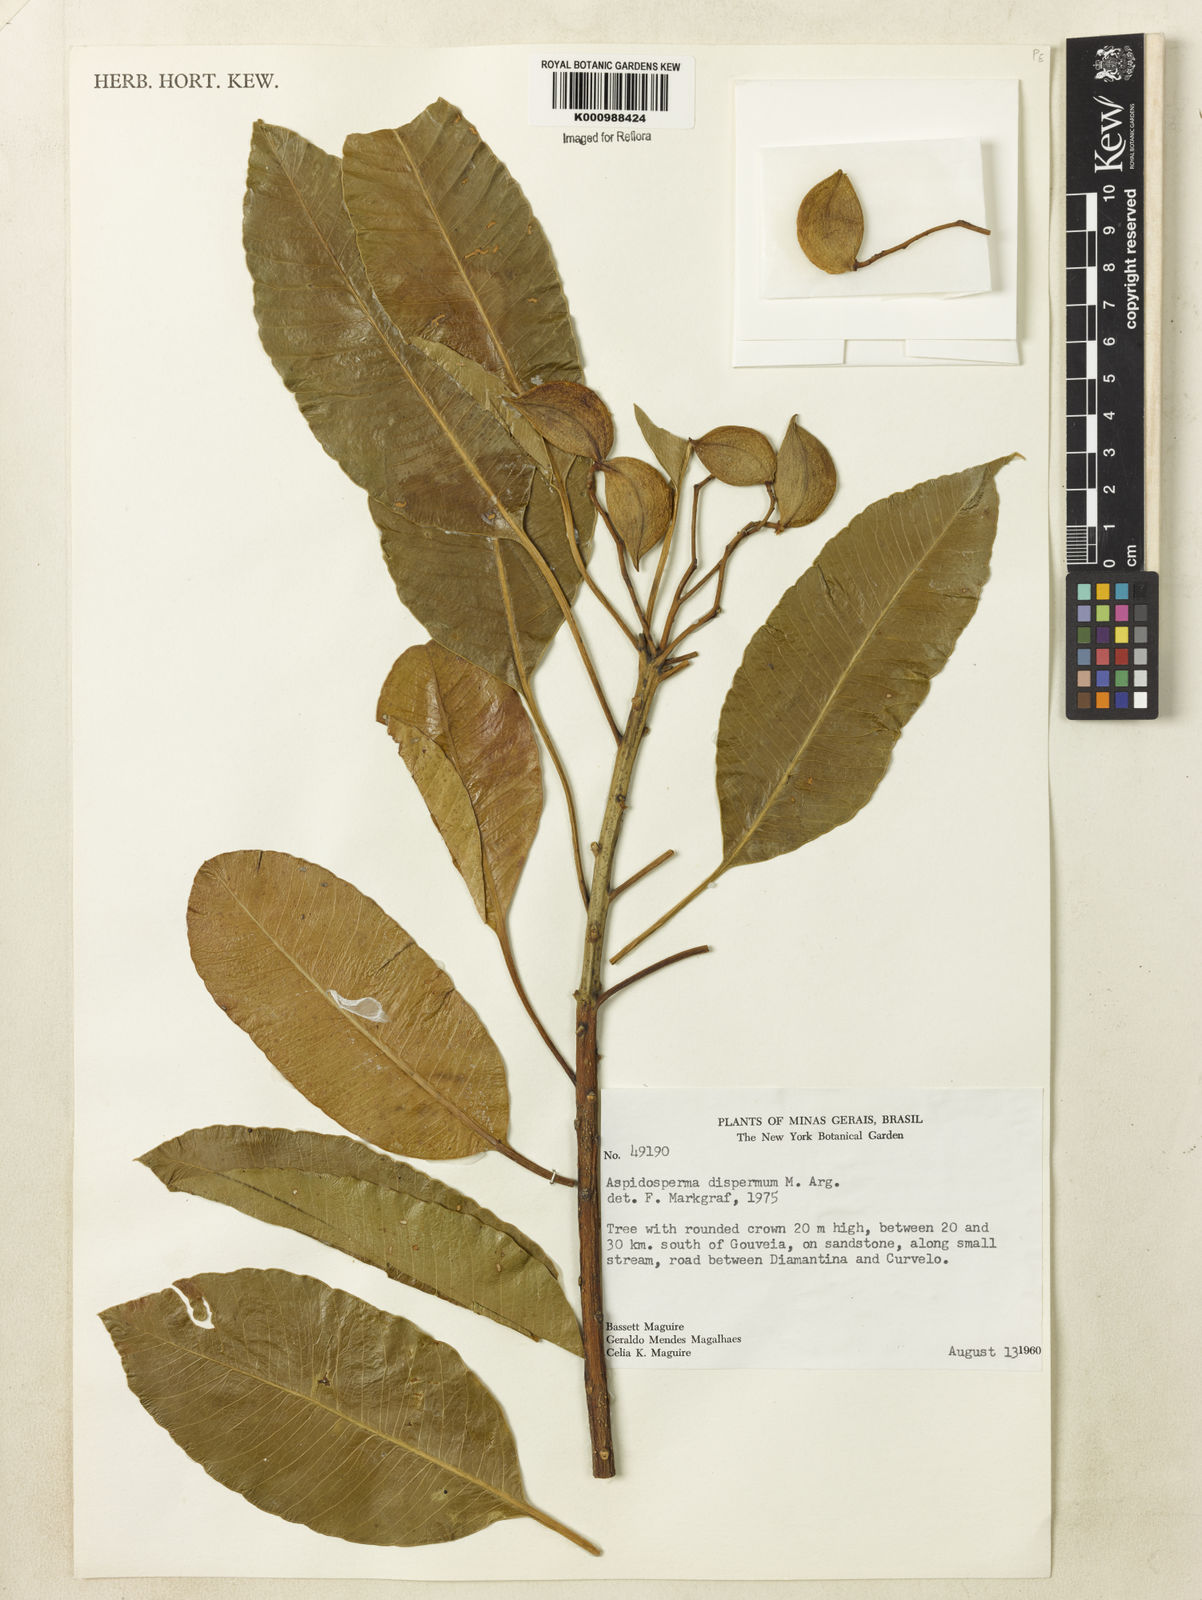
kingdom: Plantae
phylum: Tracheophyta
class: Magnoliopsida
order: Gentianales
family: Apocynaceae
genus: Aspidosperma
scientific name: Aspidosperma
